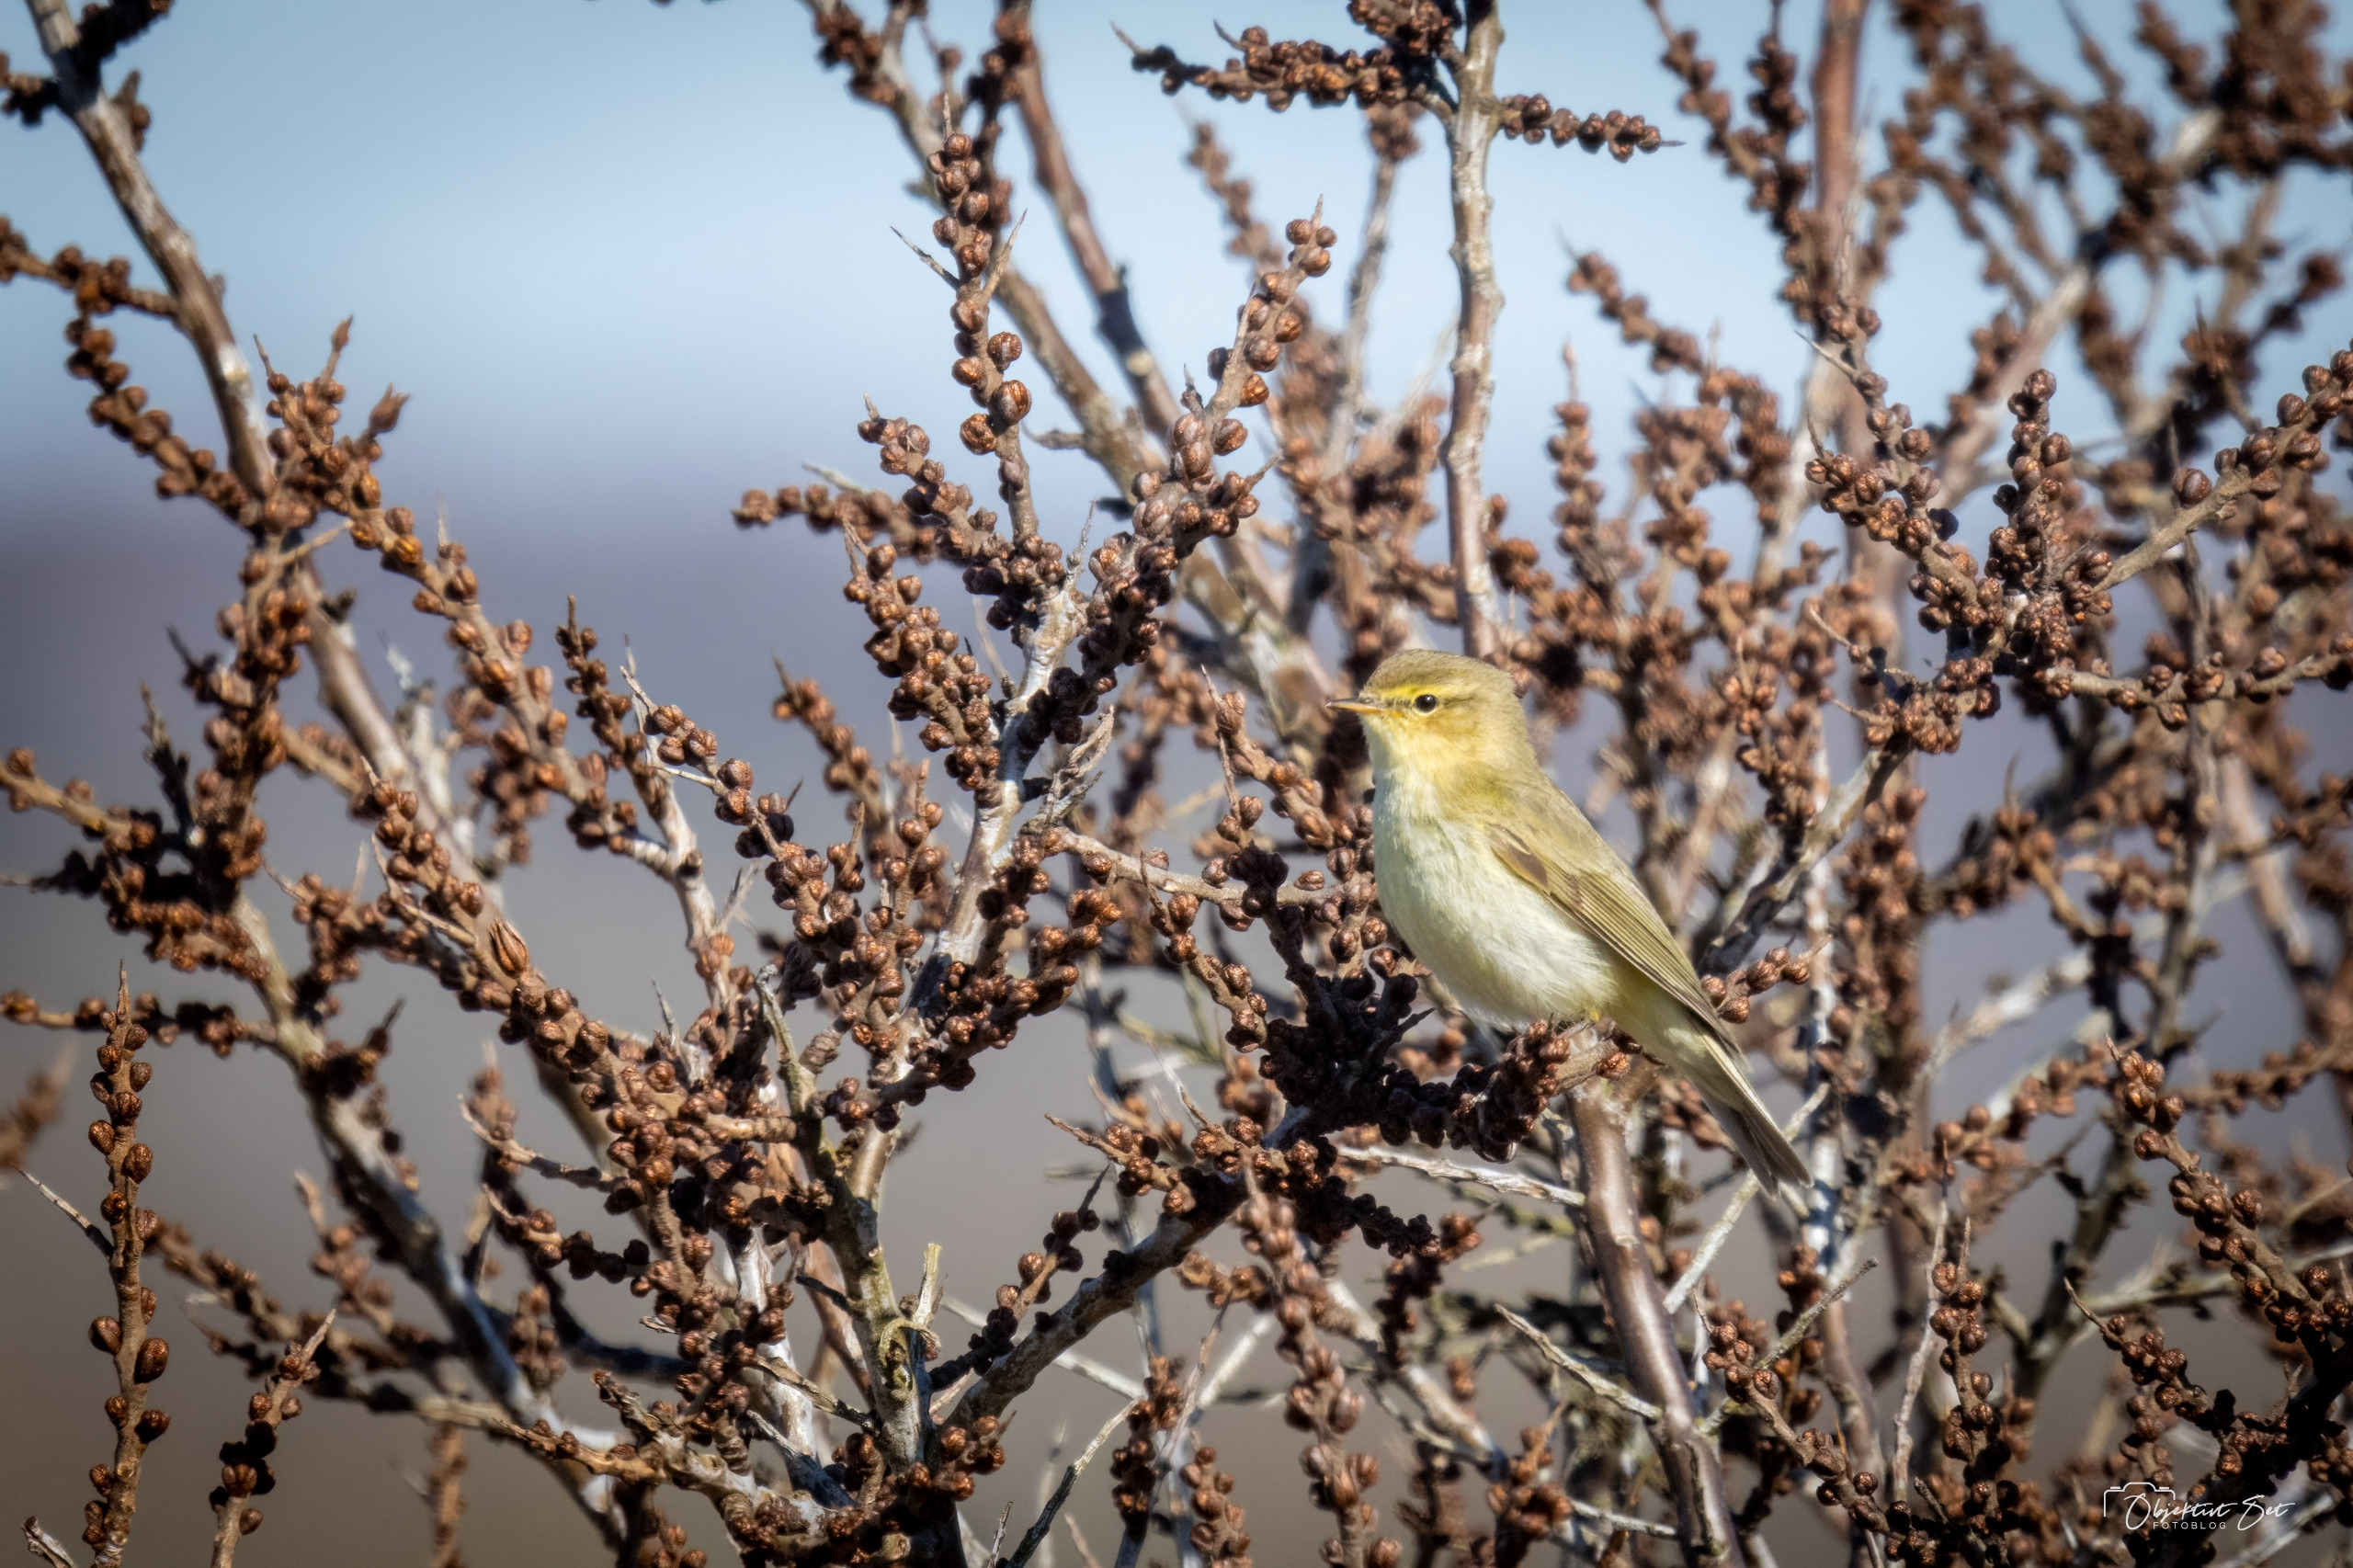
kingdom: Animalia
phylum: Chordata
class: Aves
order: Passeriformes
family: Phylloscopidae
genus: Phylloscopus
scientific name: Phylloscopus collybita
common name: Gransanger
